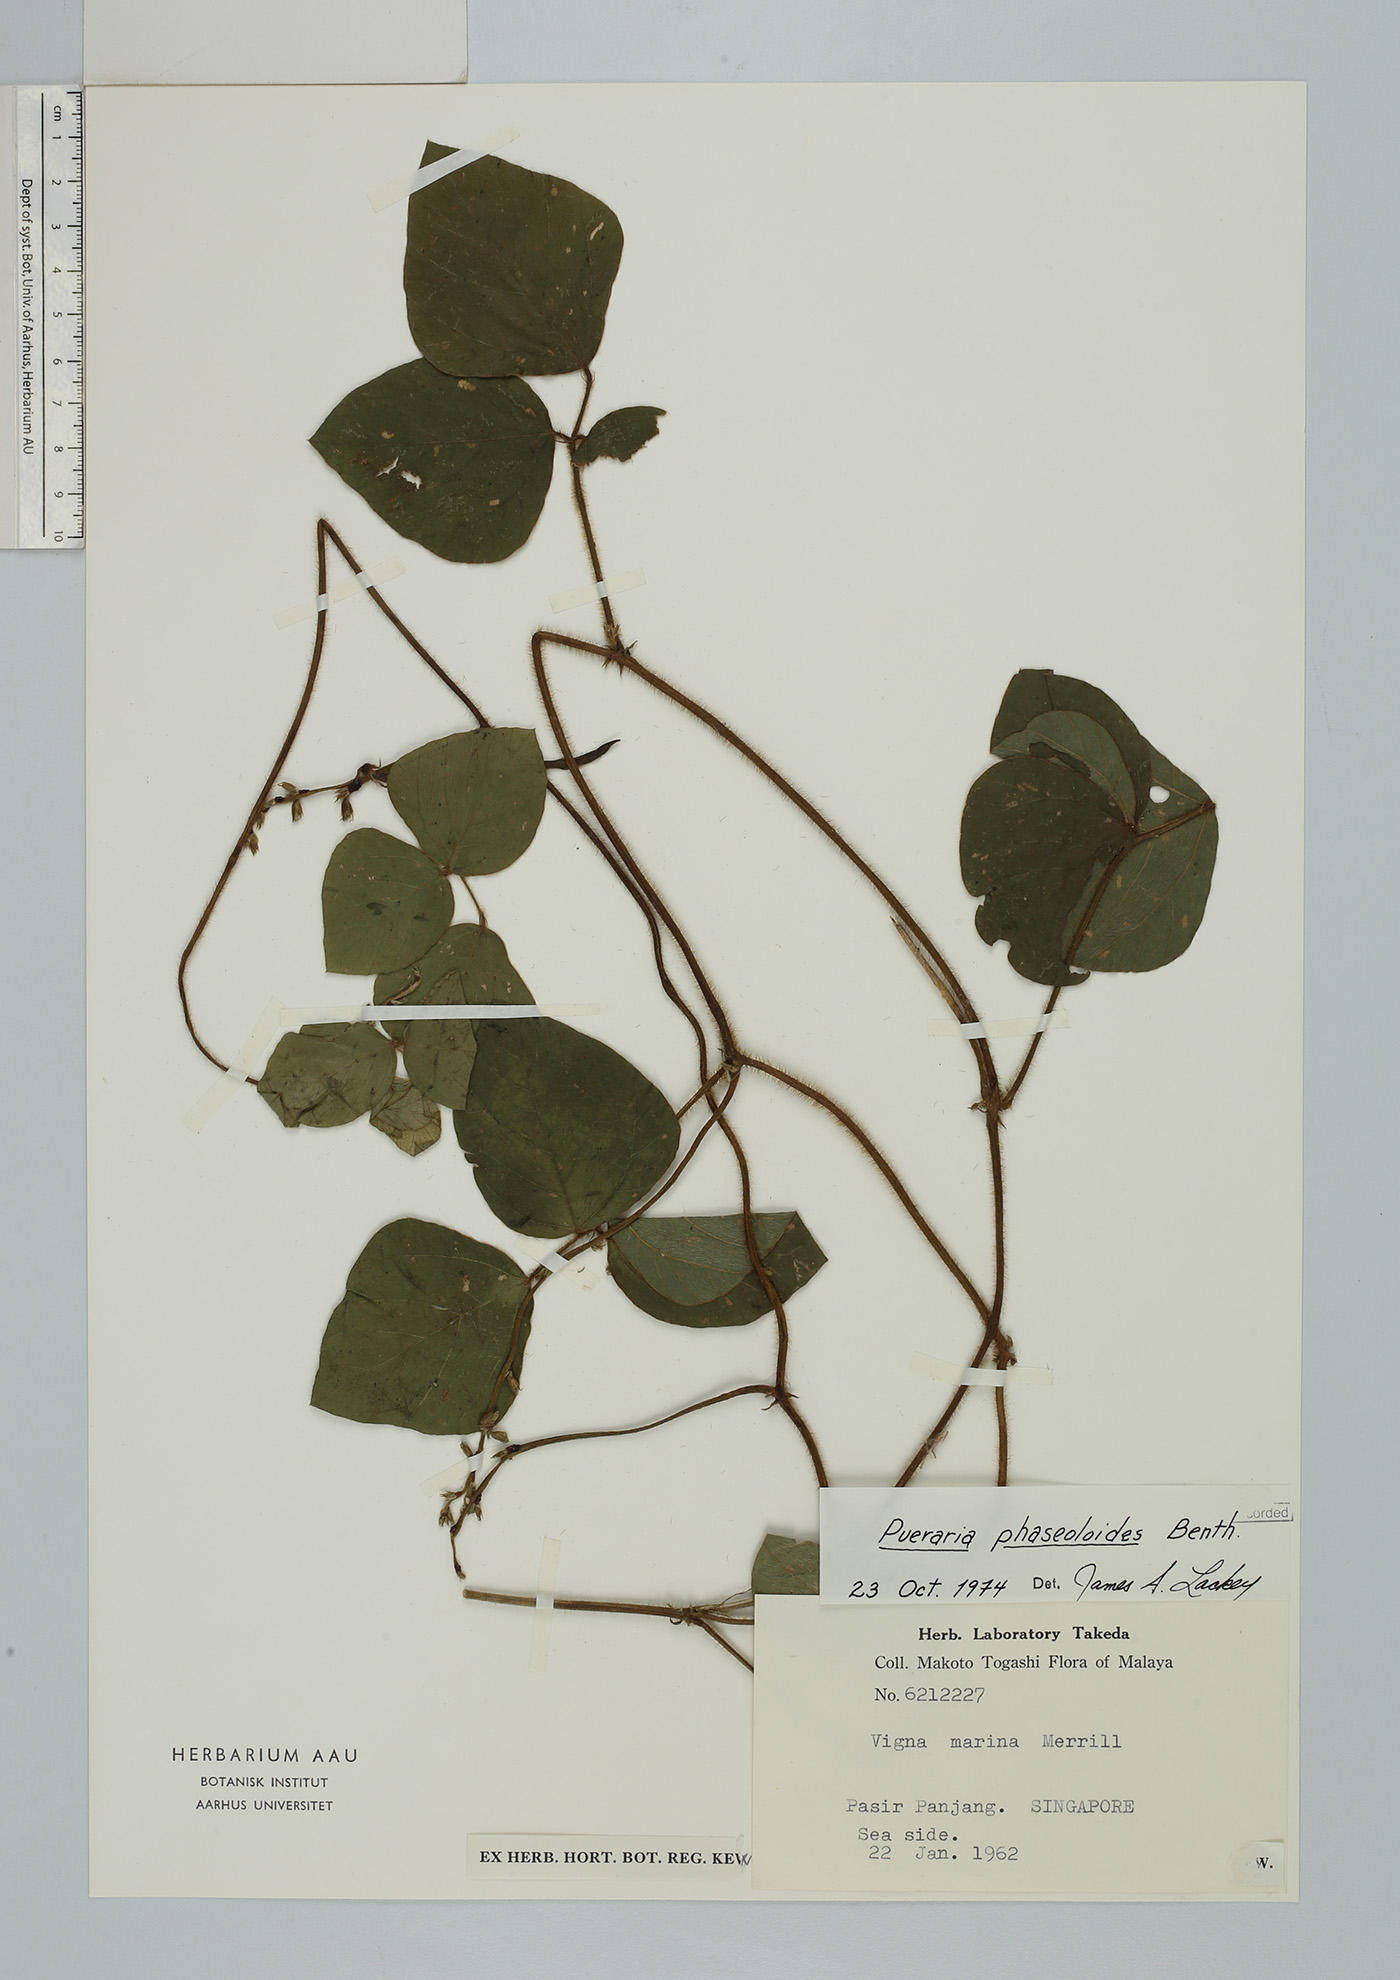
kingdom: Plantae
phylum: Tracheophyta
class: Magnoliopsida
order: Fabales
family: Fabaceae
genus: Neustanthus
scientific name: Neustanthus phaseoloides
